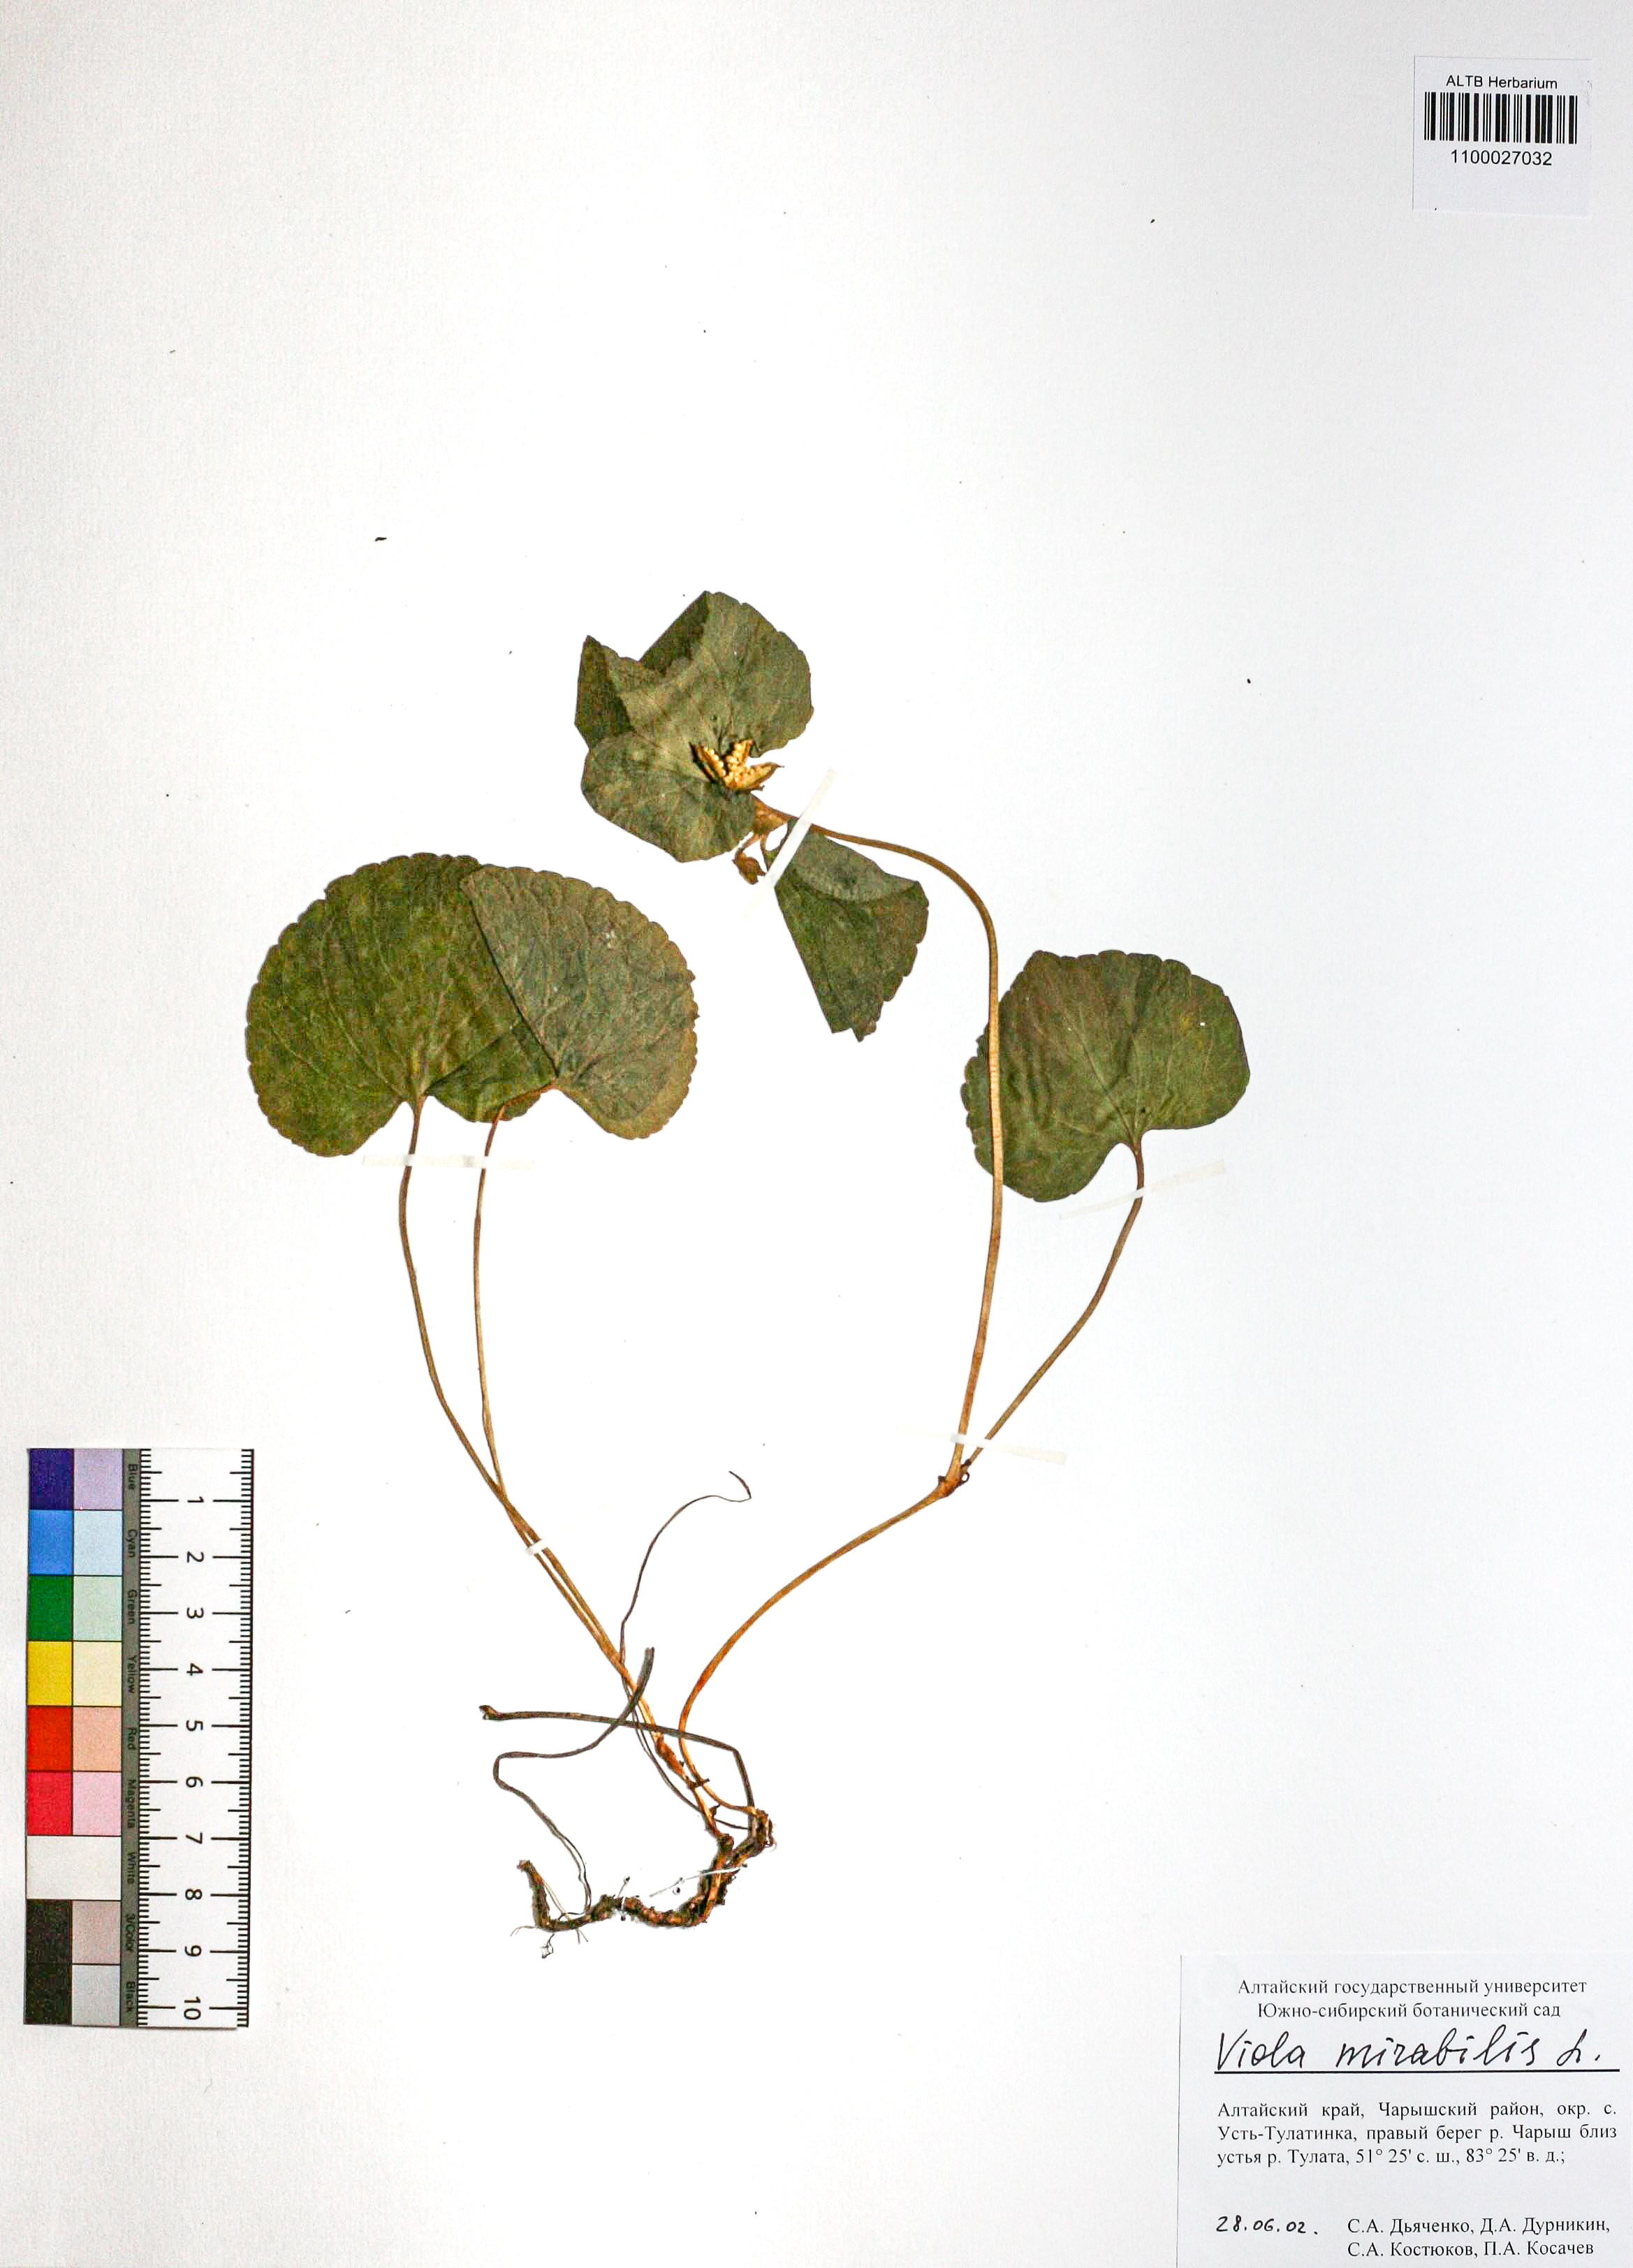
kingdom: Plantae
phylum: Tracheophyta
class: Magnoliopsida
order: Malpighiales
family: Violaceae
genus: Viola
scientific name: Viola mirabilis
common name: Wonder violet
